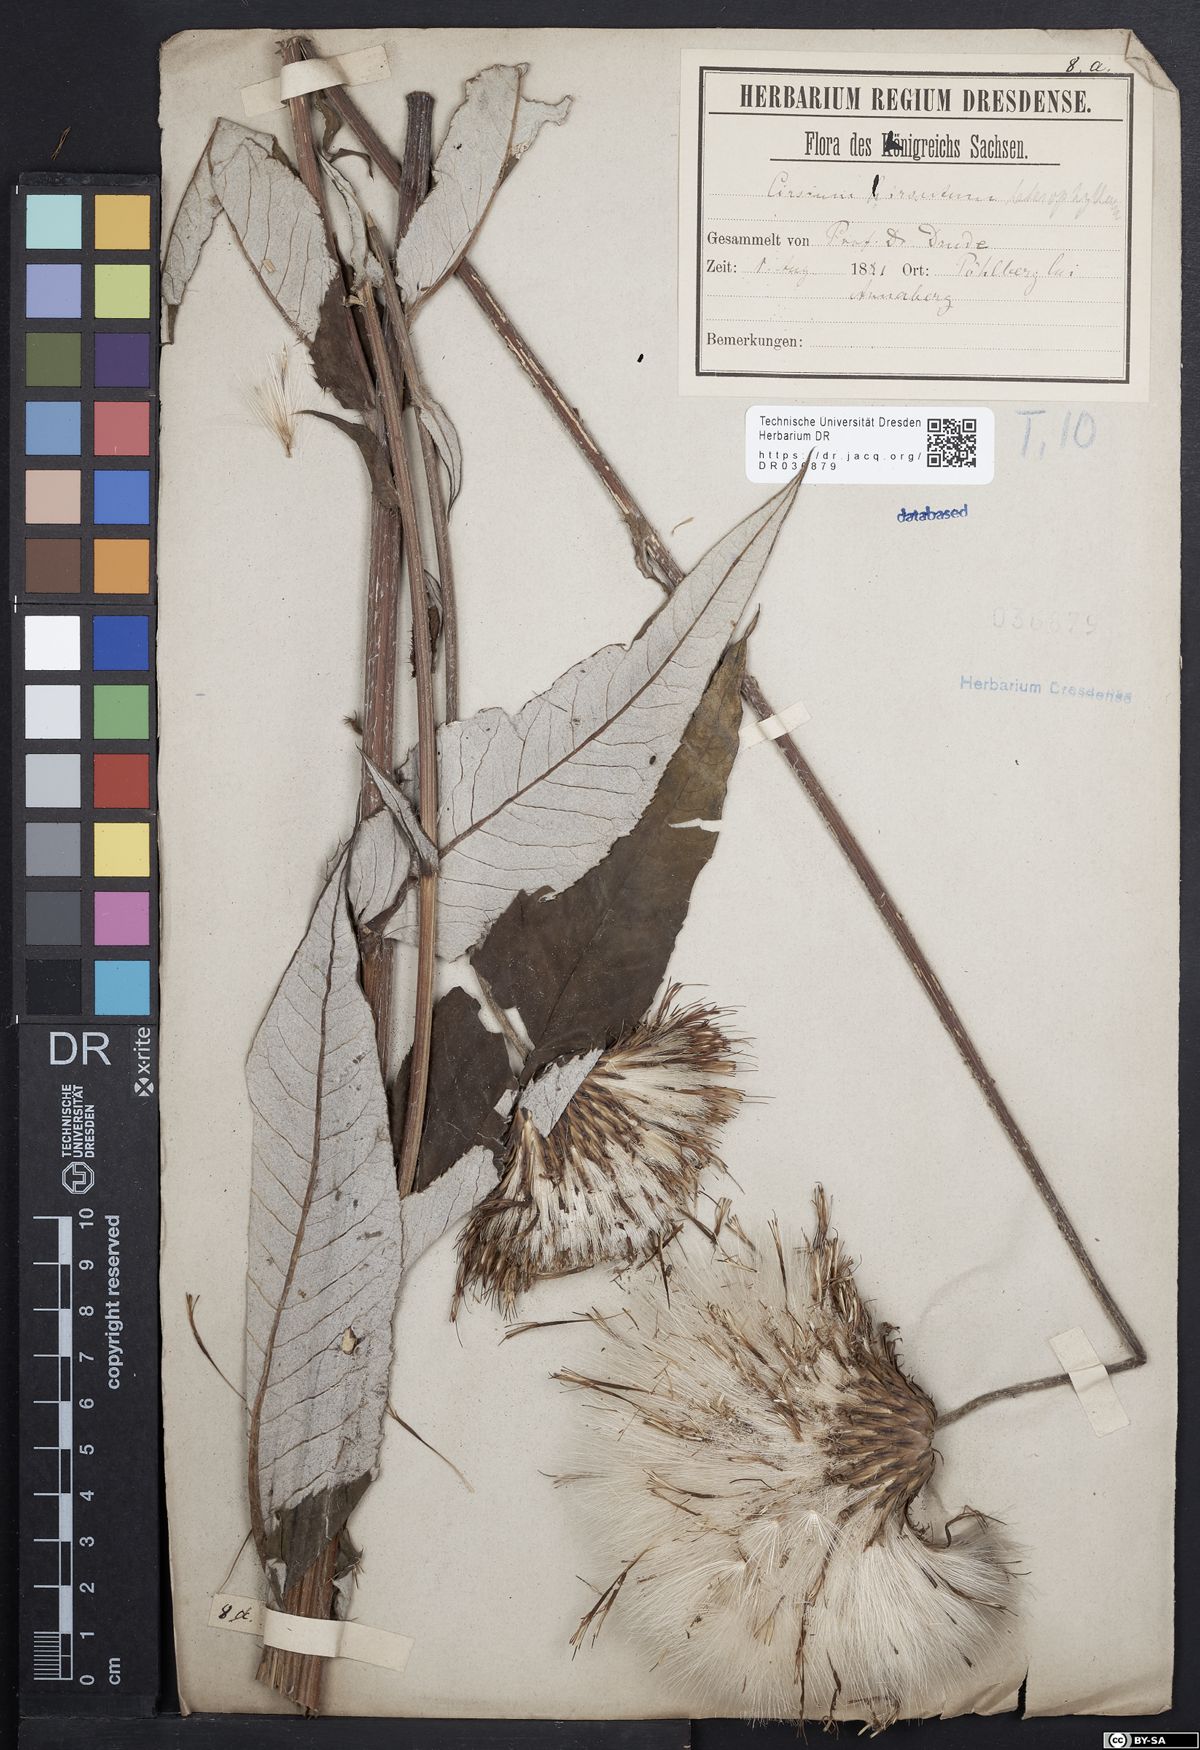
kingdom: Plantae
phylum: Tracheophyta
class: Magnoliopsida
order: Asterales
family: Asteraceae
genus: Cirsium
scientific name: Cirsium helenioides
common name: Melancholy thistle
